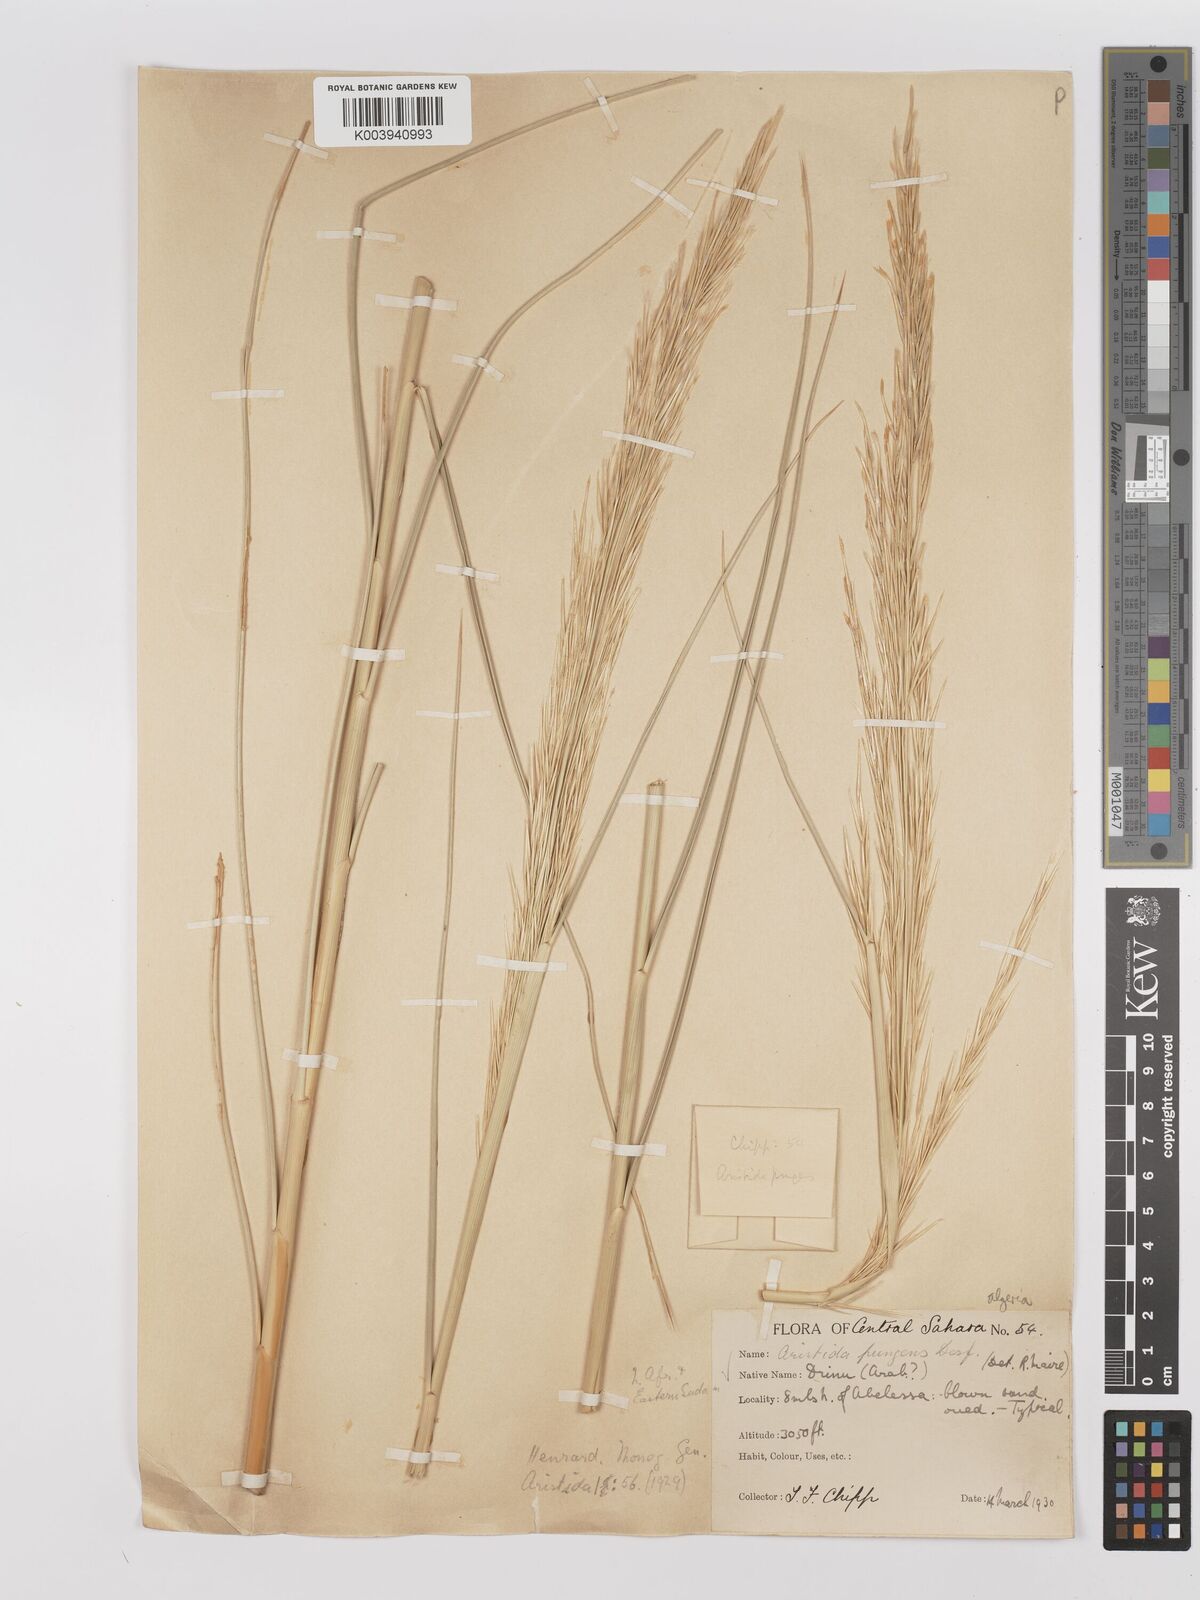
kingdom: Plantae
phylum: Tracheophyta
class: Liliopsida
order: Poales
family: Poaceae
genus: Stipagrostis
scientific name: Stipagrostis pungens
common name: Three-awn grass
